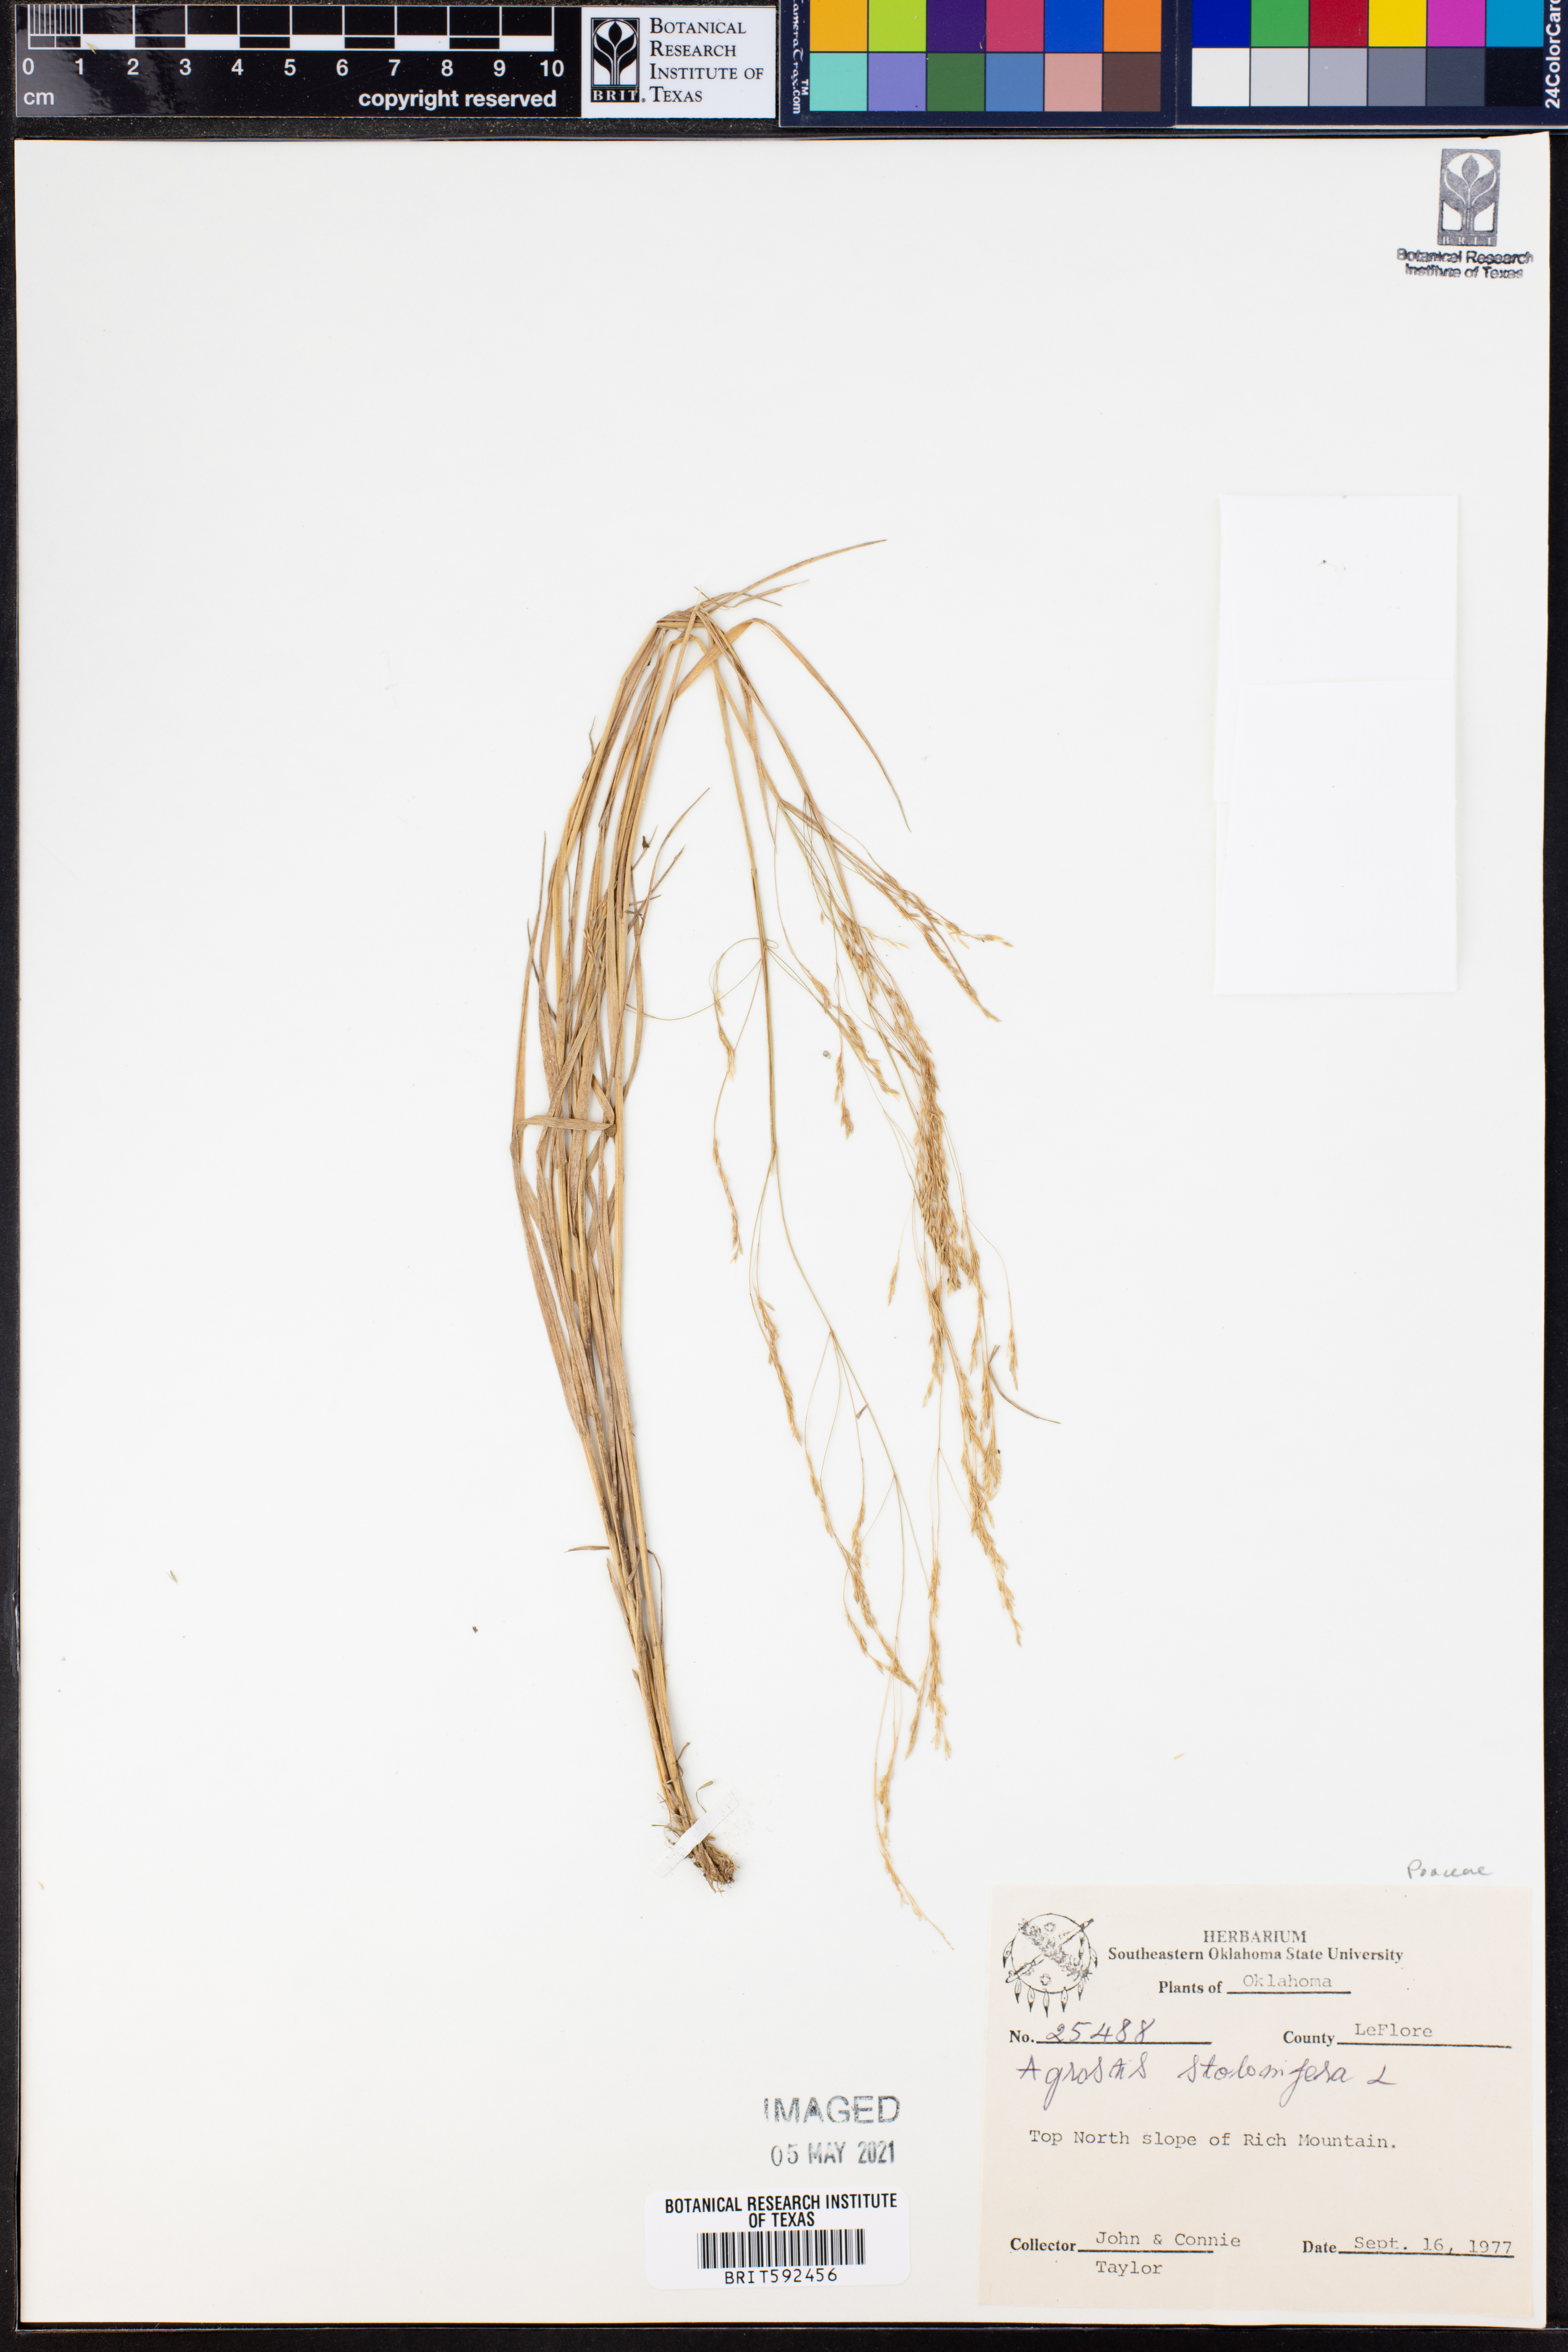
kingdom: Plantae
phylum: Tracheophyta
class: Liliopsida
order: Poales
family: Poaceae
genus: Agrostis
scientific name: Agrostis stolonifera
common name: Creeping bentgrass
